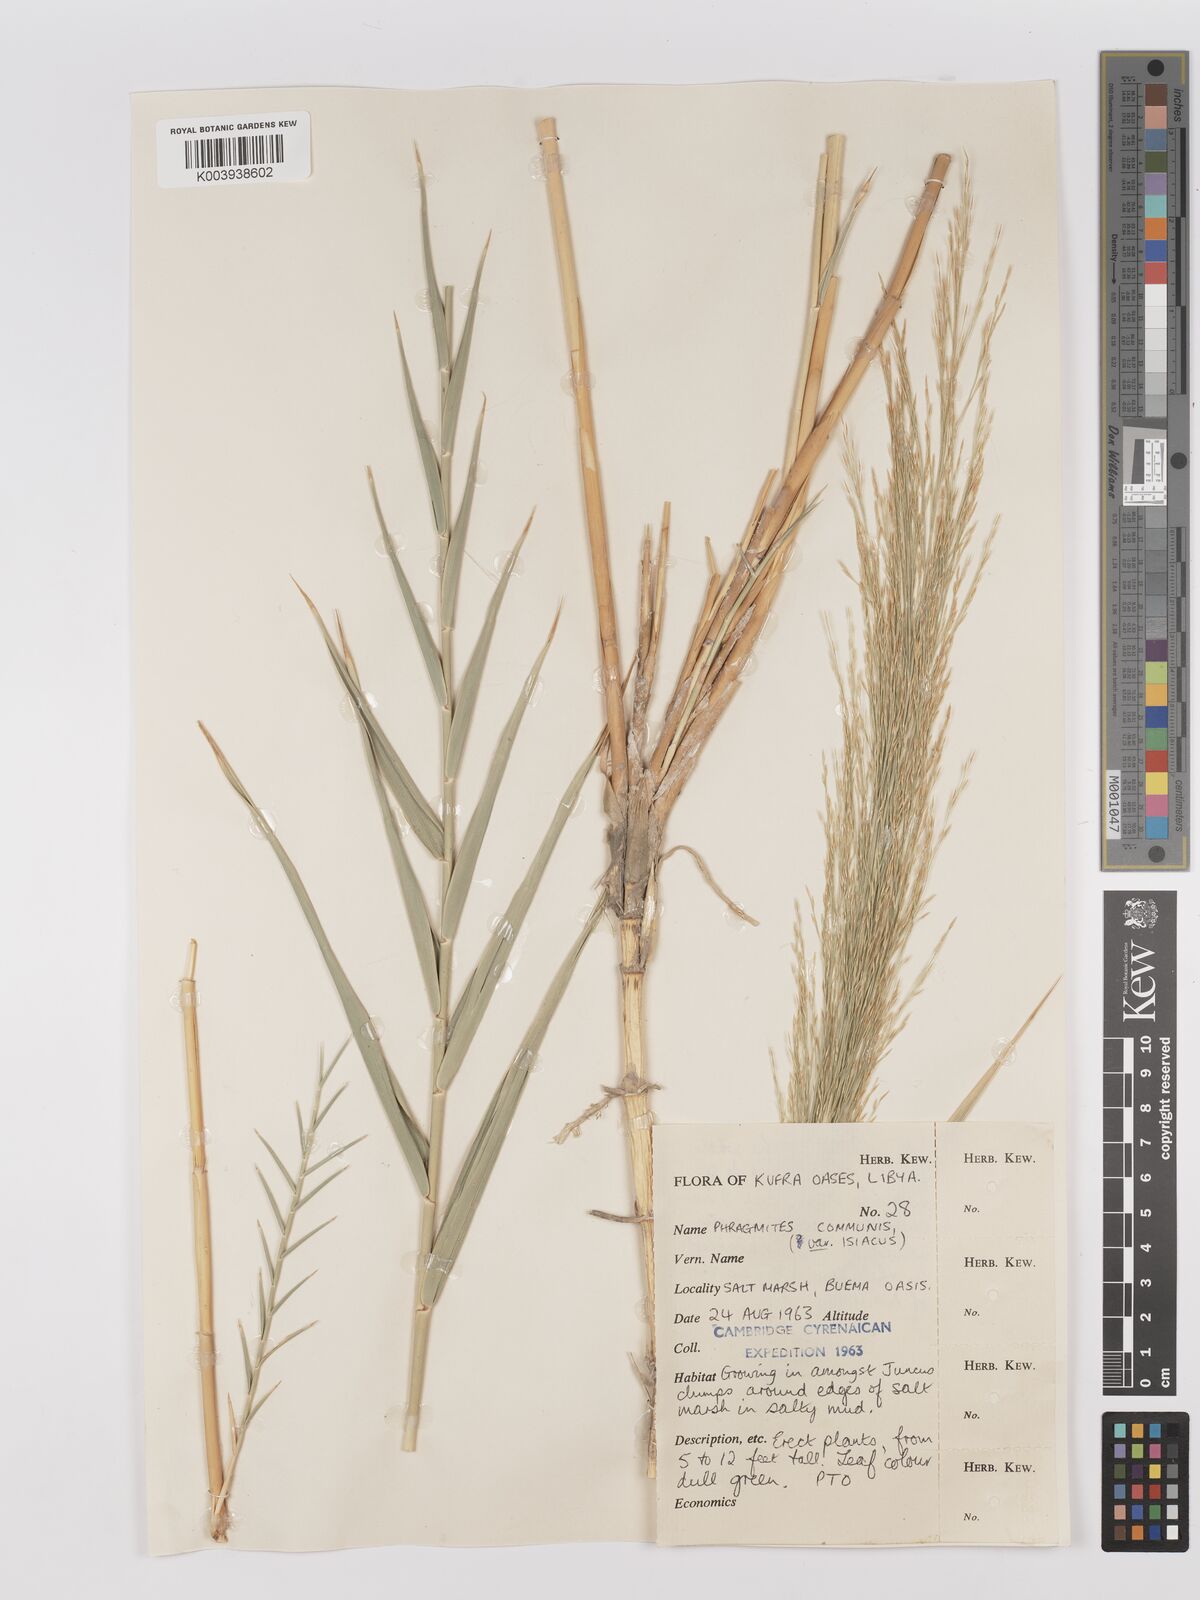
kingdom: Plantae
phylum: Tracheophyta
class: Liliopsida
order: Poales
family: Poaceae
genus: Phragmites
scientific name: Phragmites australis
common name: Common reed
